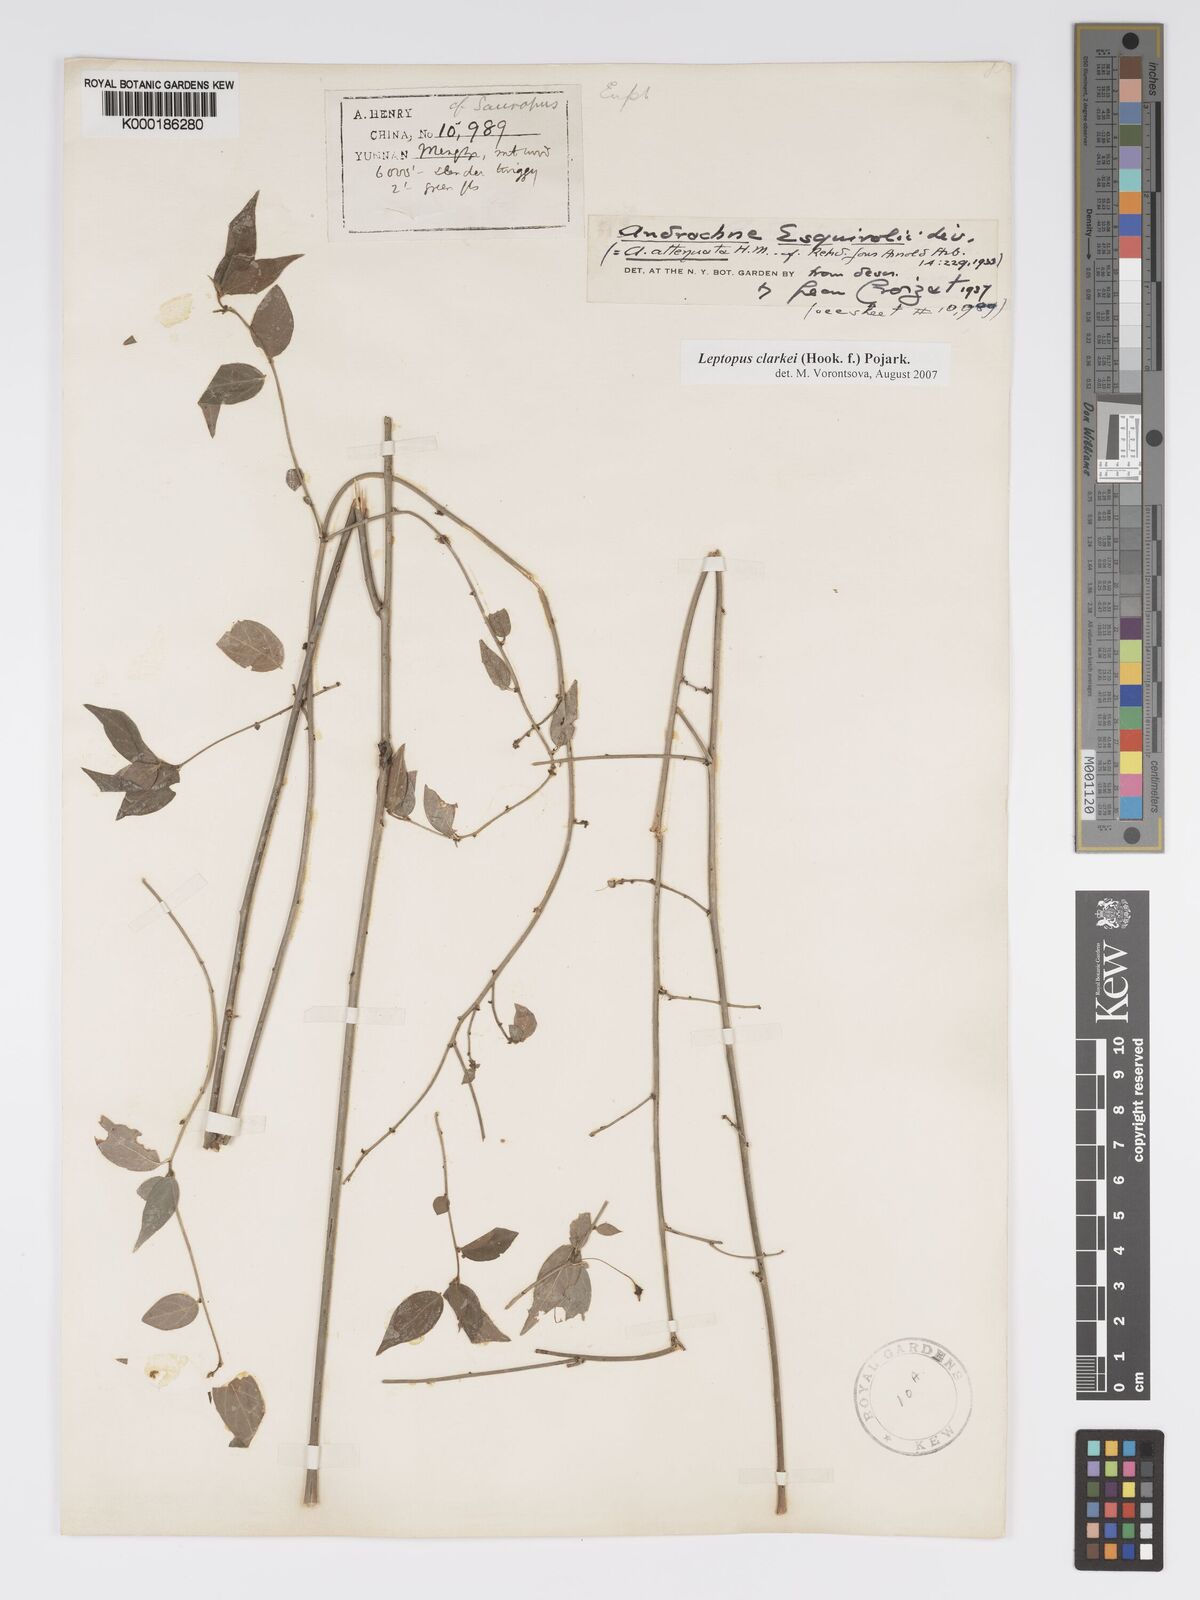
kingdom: Plantae
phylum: Tracheophyta
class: Magnoliopsida
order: Malpighiales
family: Phyllanthaceae
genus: Leptopus
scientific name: Leptopus clarkei
